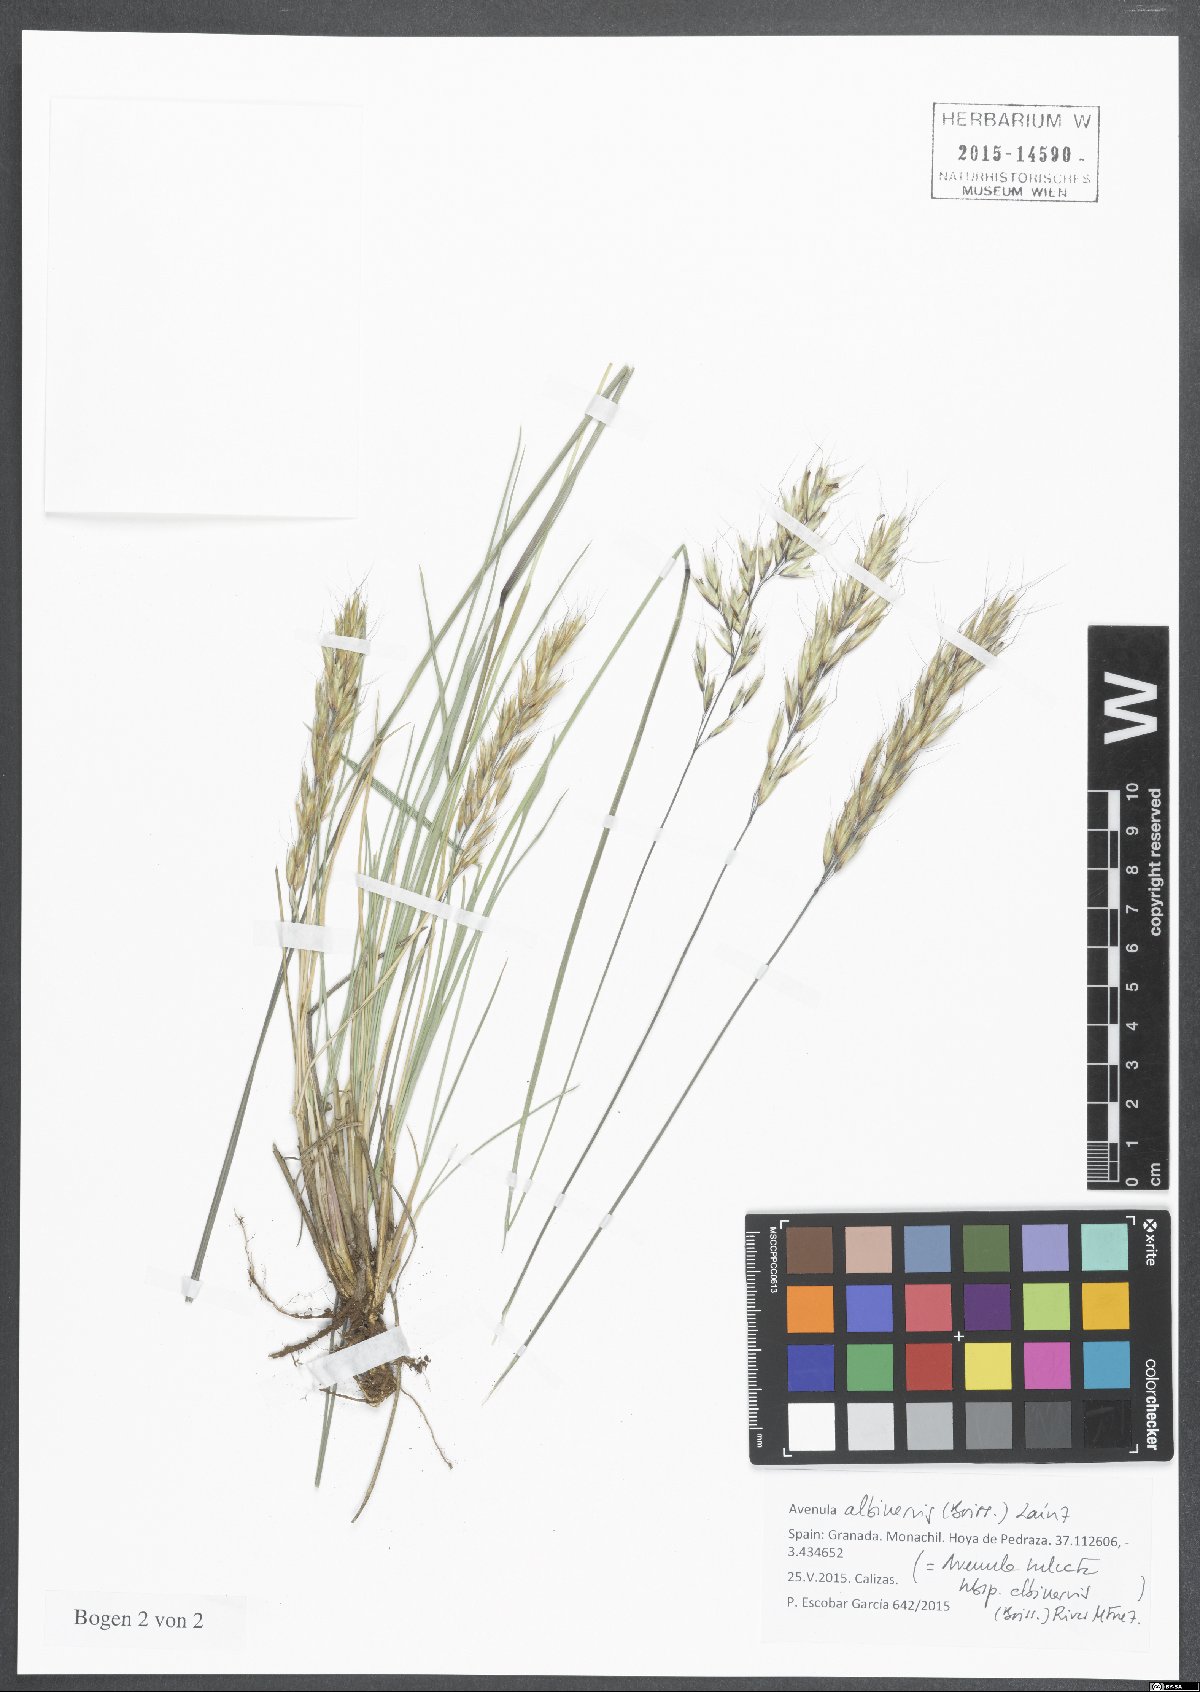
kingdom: Plantae
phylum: Tracheophyta
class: Liliopsida
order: Poales
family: Poaceae
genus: Helictochloa
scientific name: Helictochloa albinervis
